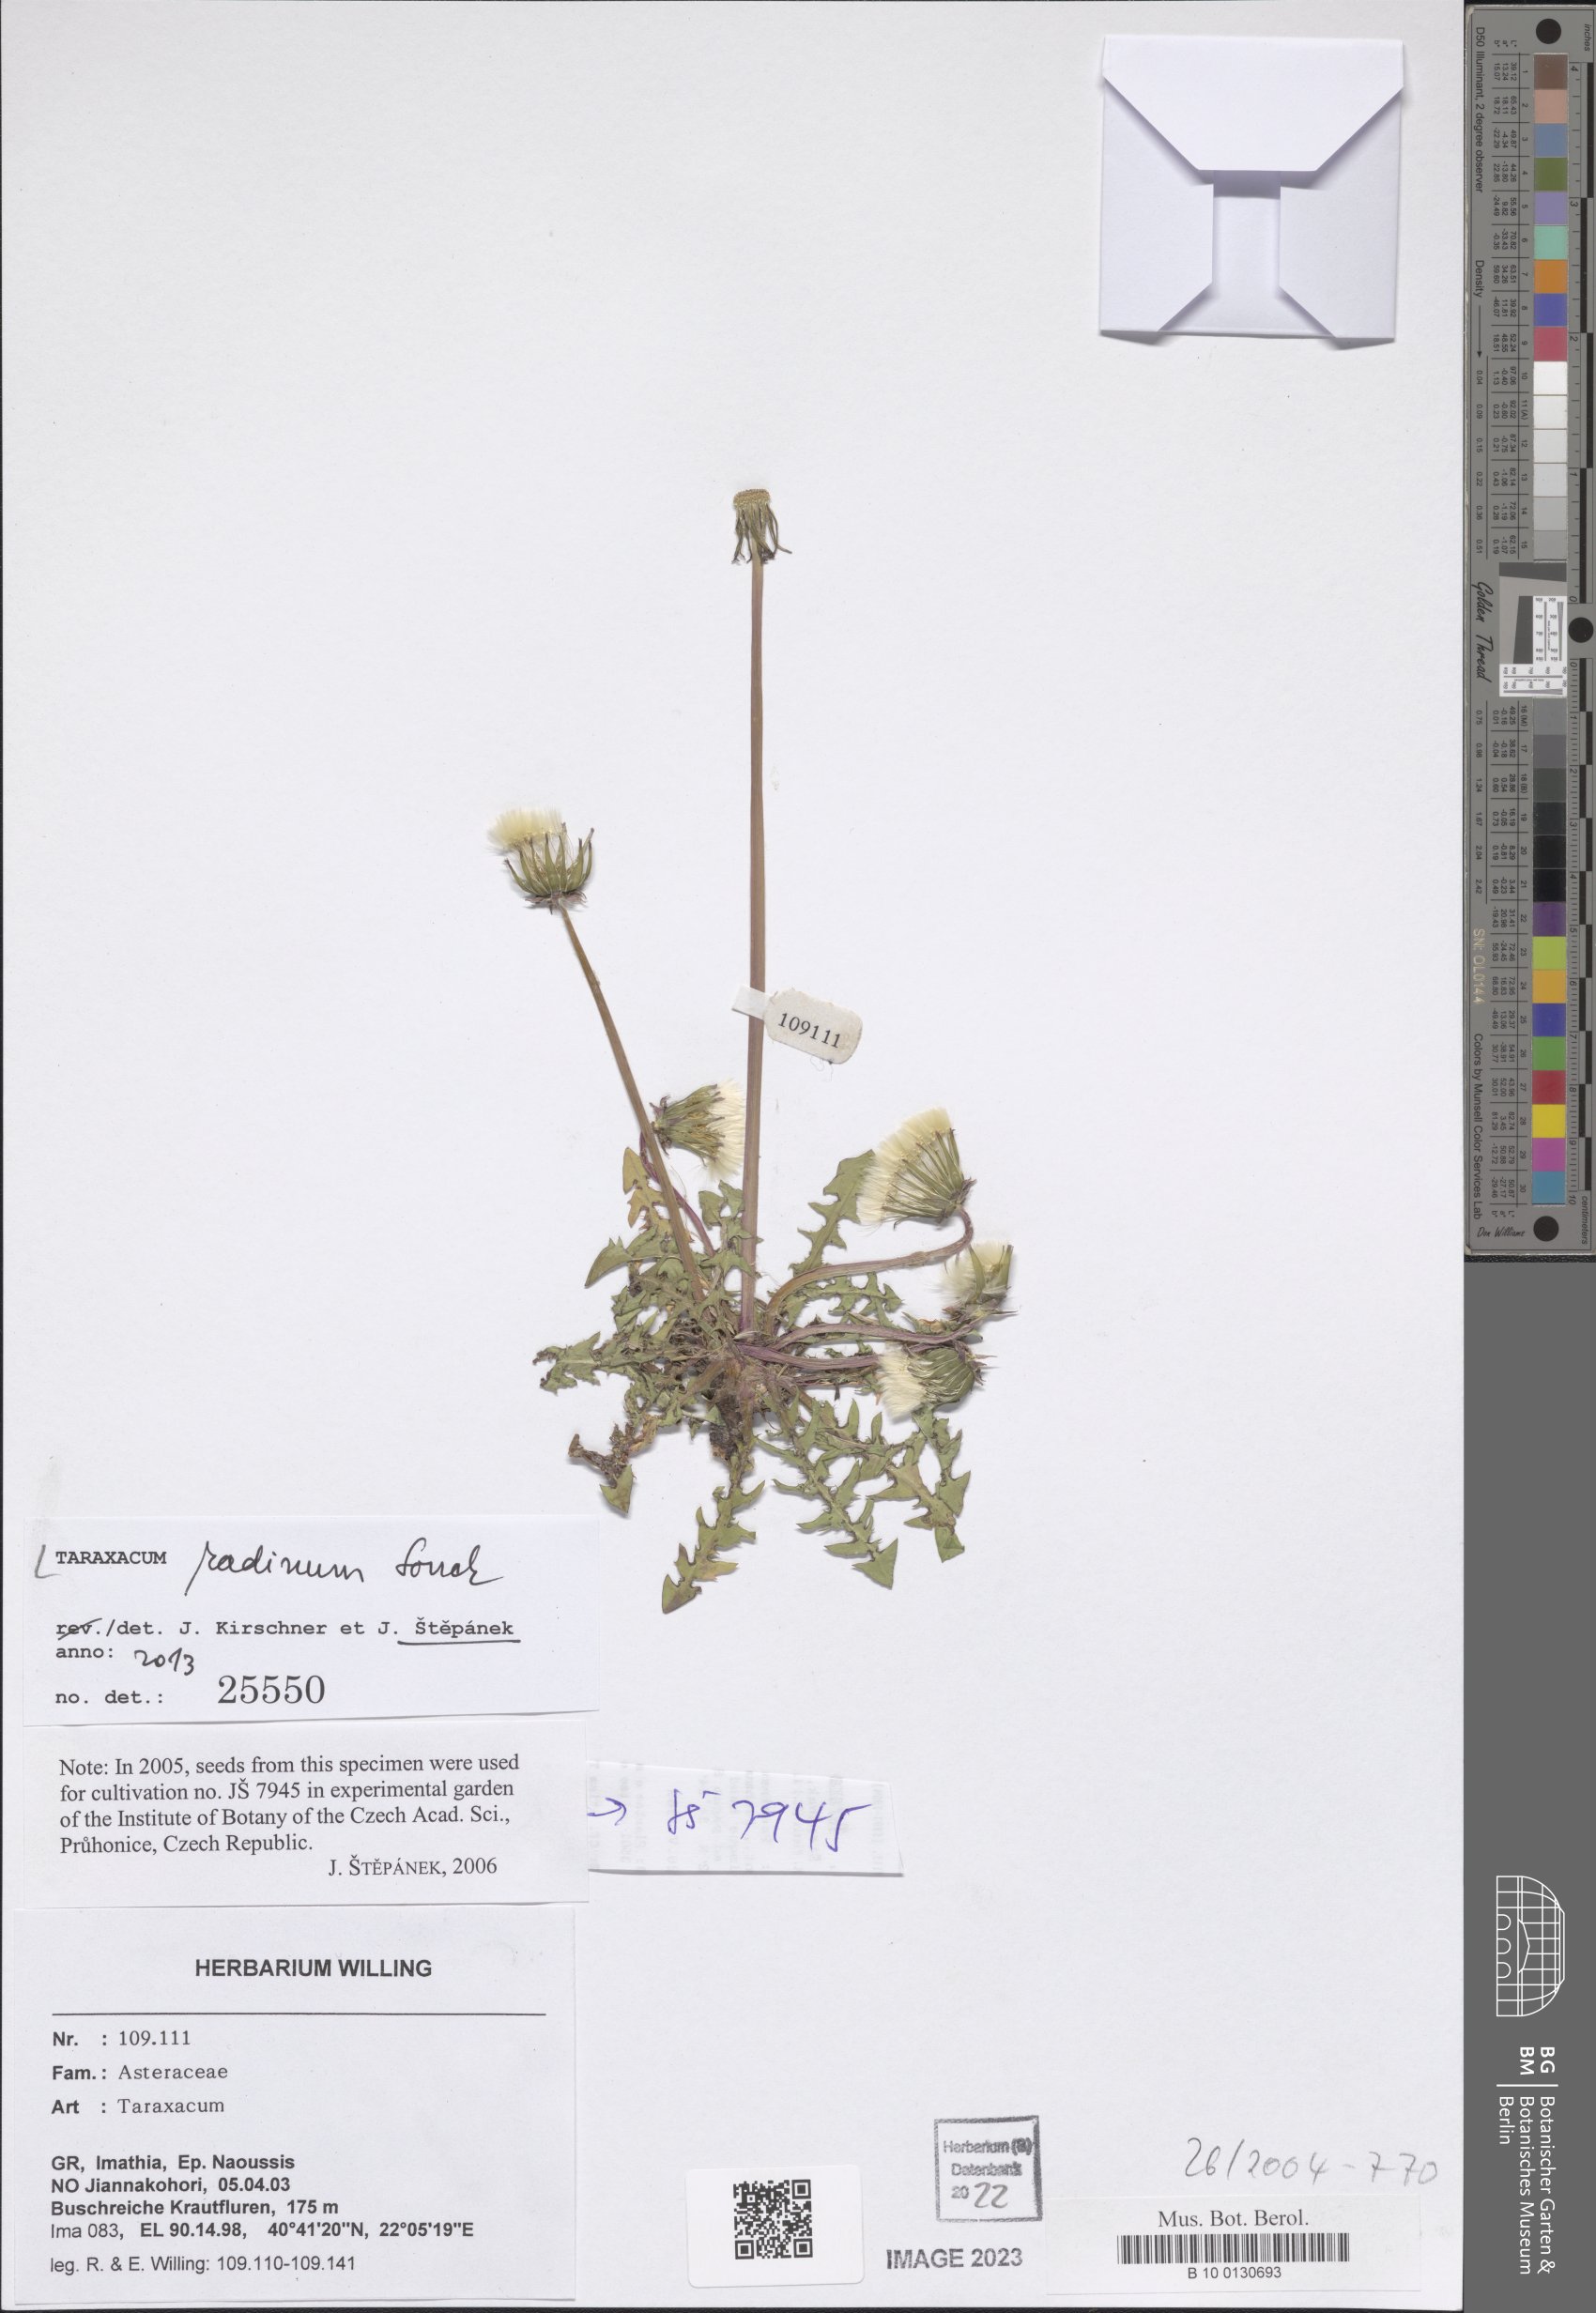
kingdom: Plantae
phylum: Tracheophyta
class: Magnoliopsida
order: Asterales
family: Asteraceae
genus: Taraxacum
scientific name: Taraxacum radinum
